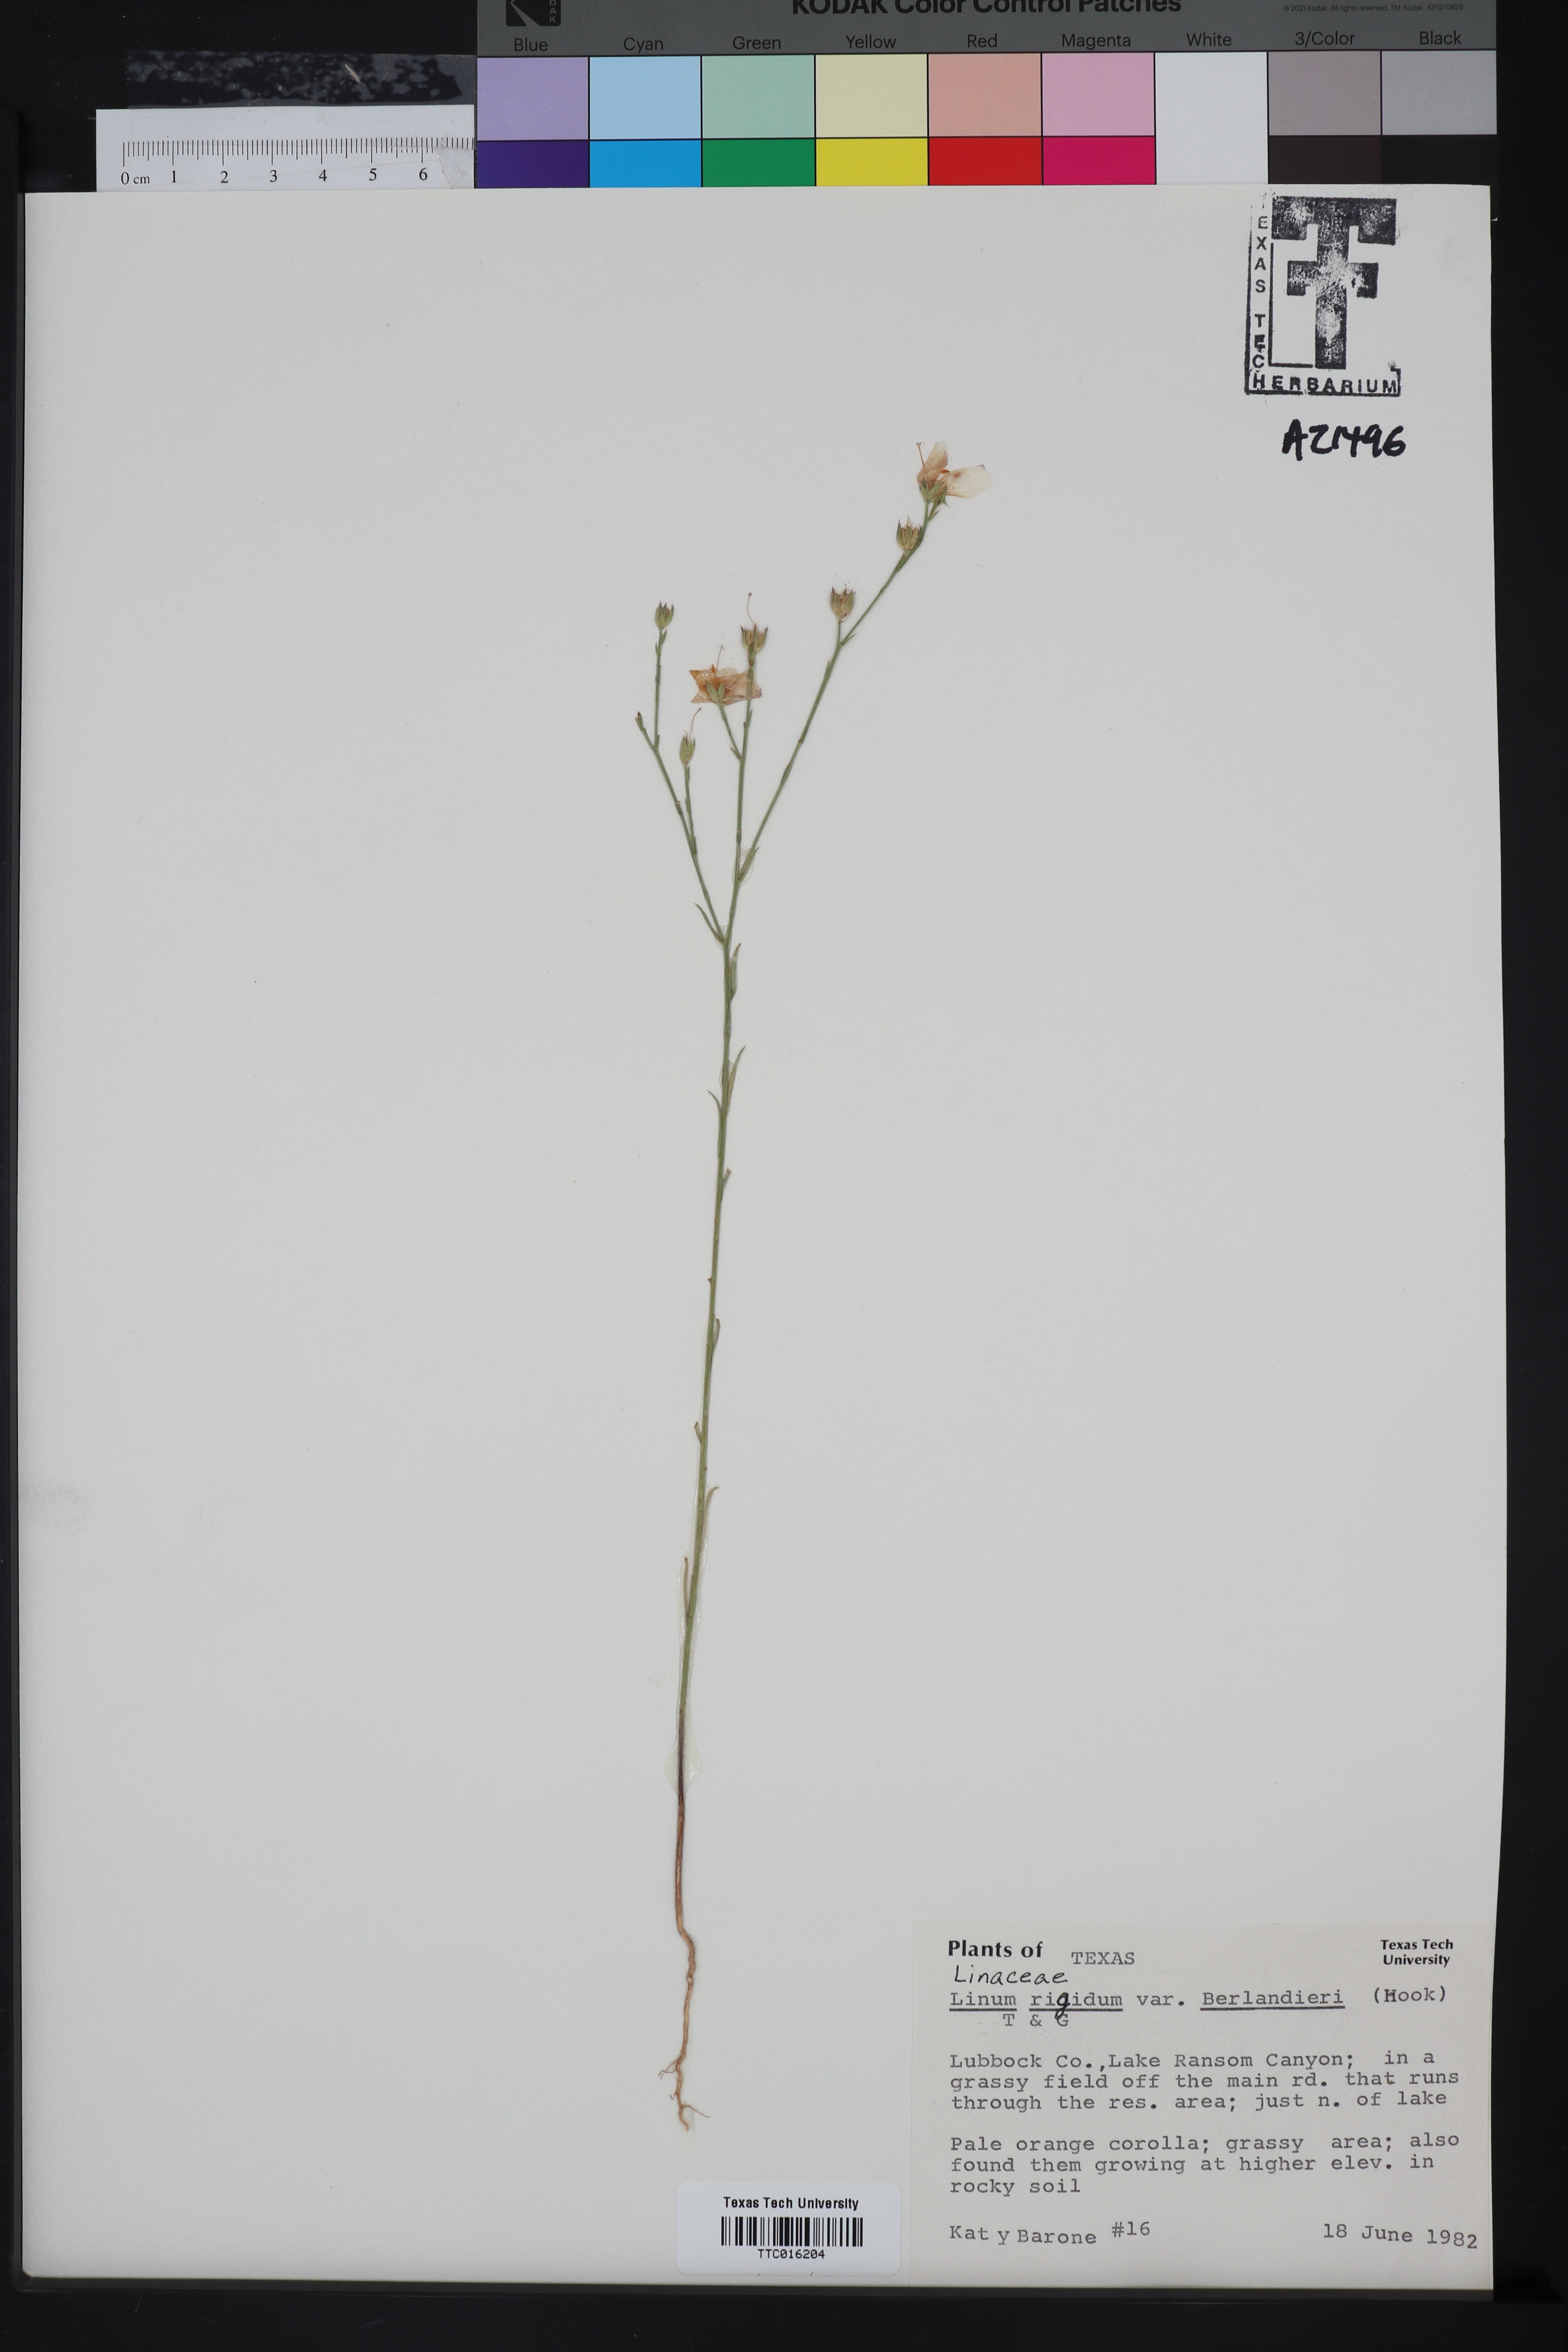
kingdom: Plantae
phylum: Tracheophyta
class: Magnoliopsida
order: Malpighiales
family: Linaceae
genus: Linum
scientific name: Linum berlandieri
